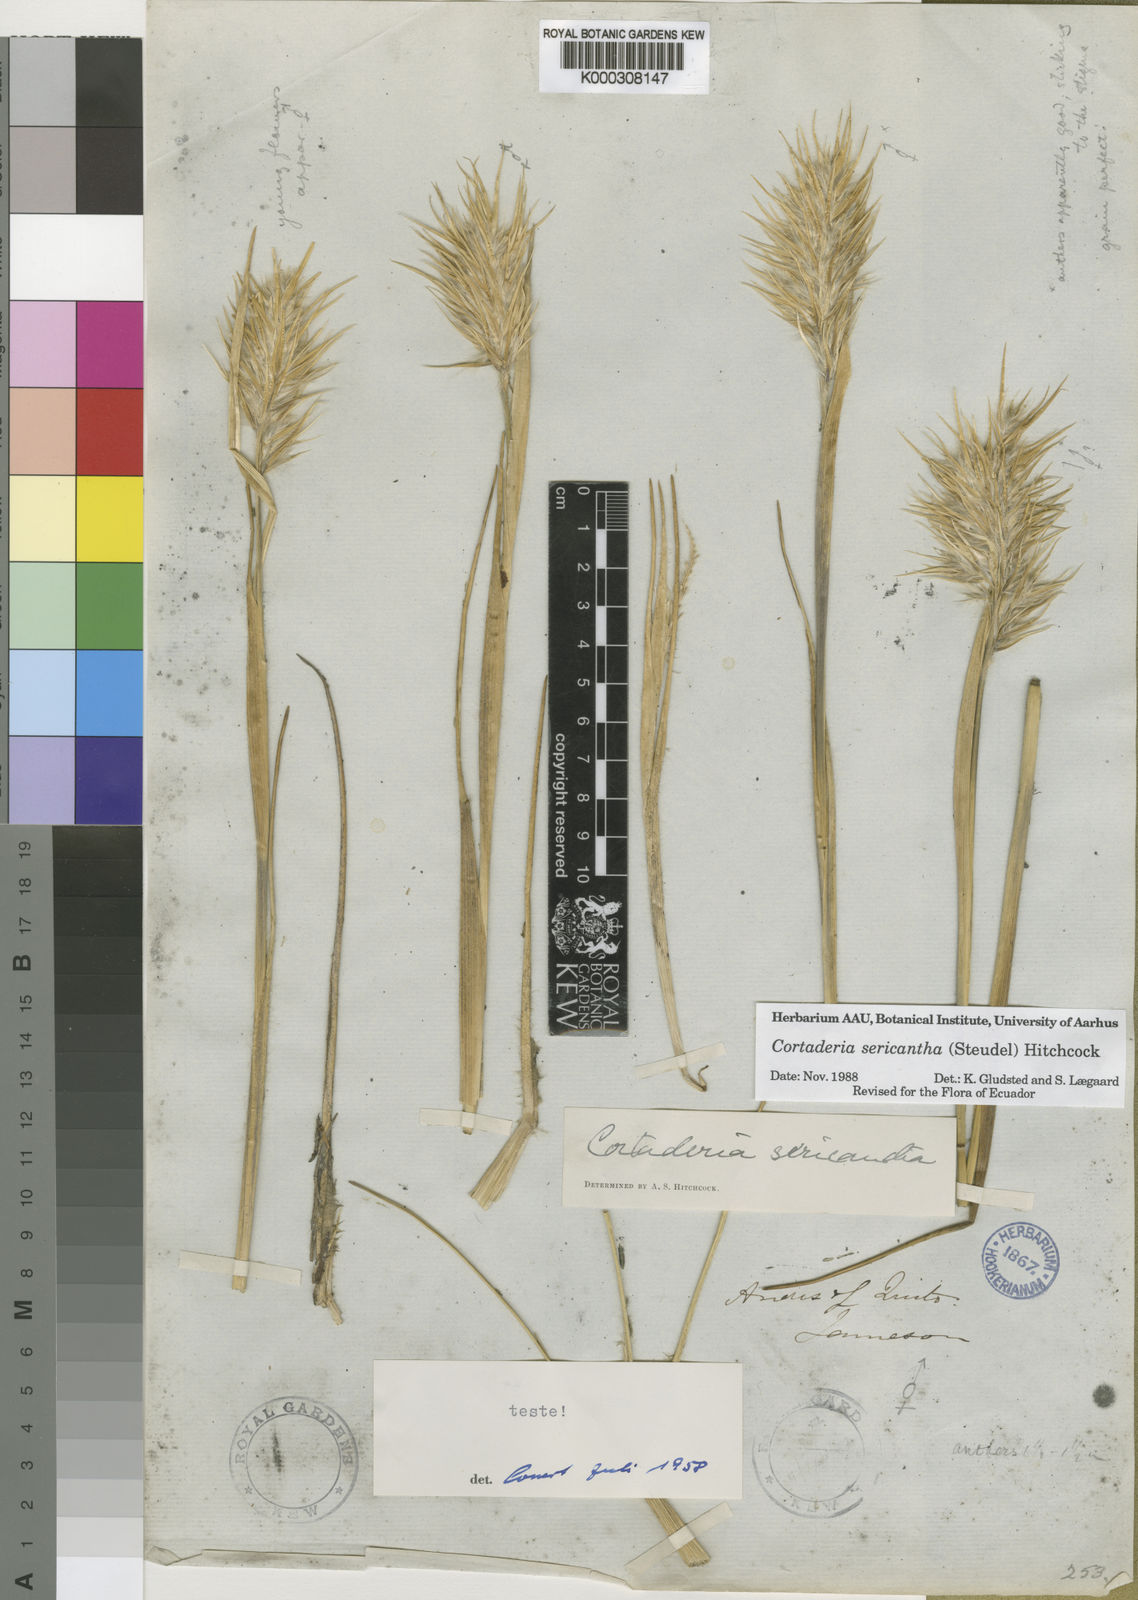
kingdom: Plantae
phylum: Tracheophyta
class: Liliopsida
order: Poales
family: Poaceae
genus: Cortaderia
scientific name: Cortaderia sericantha
